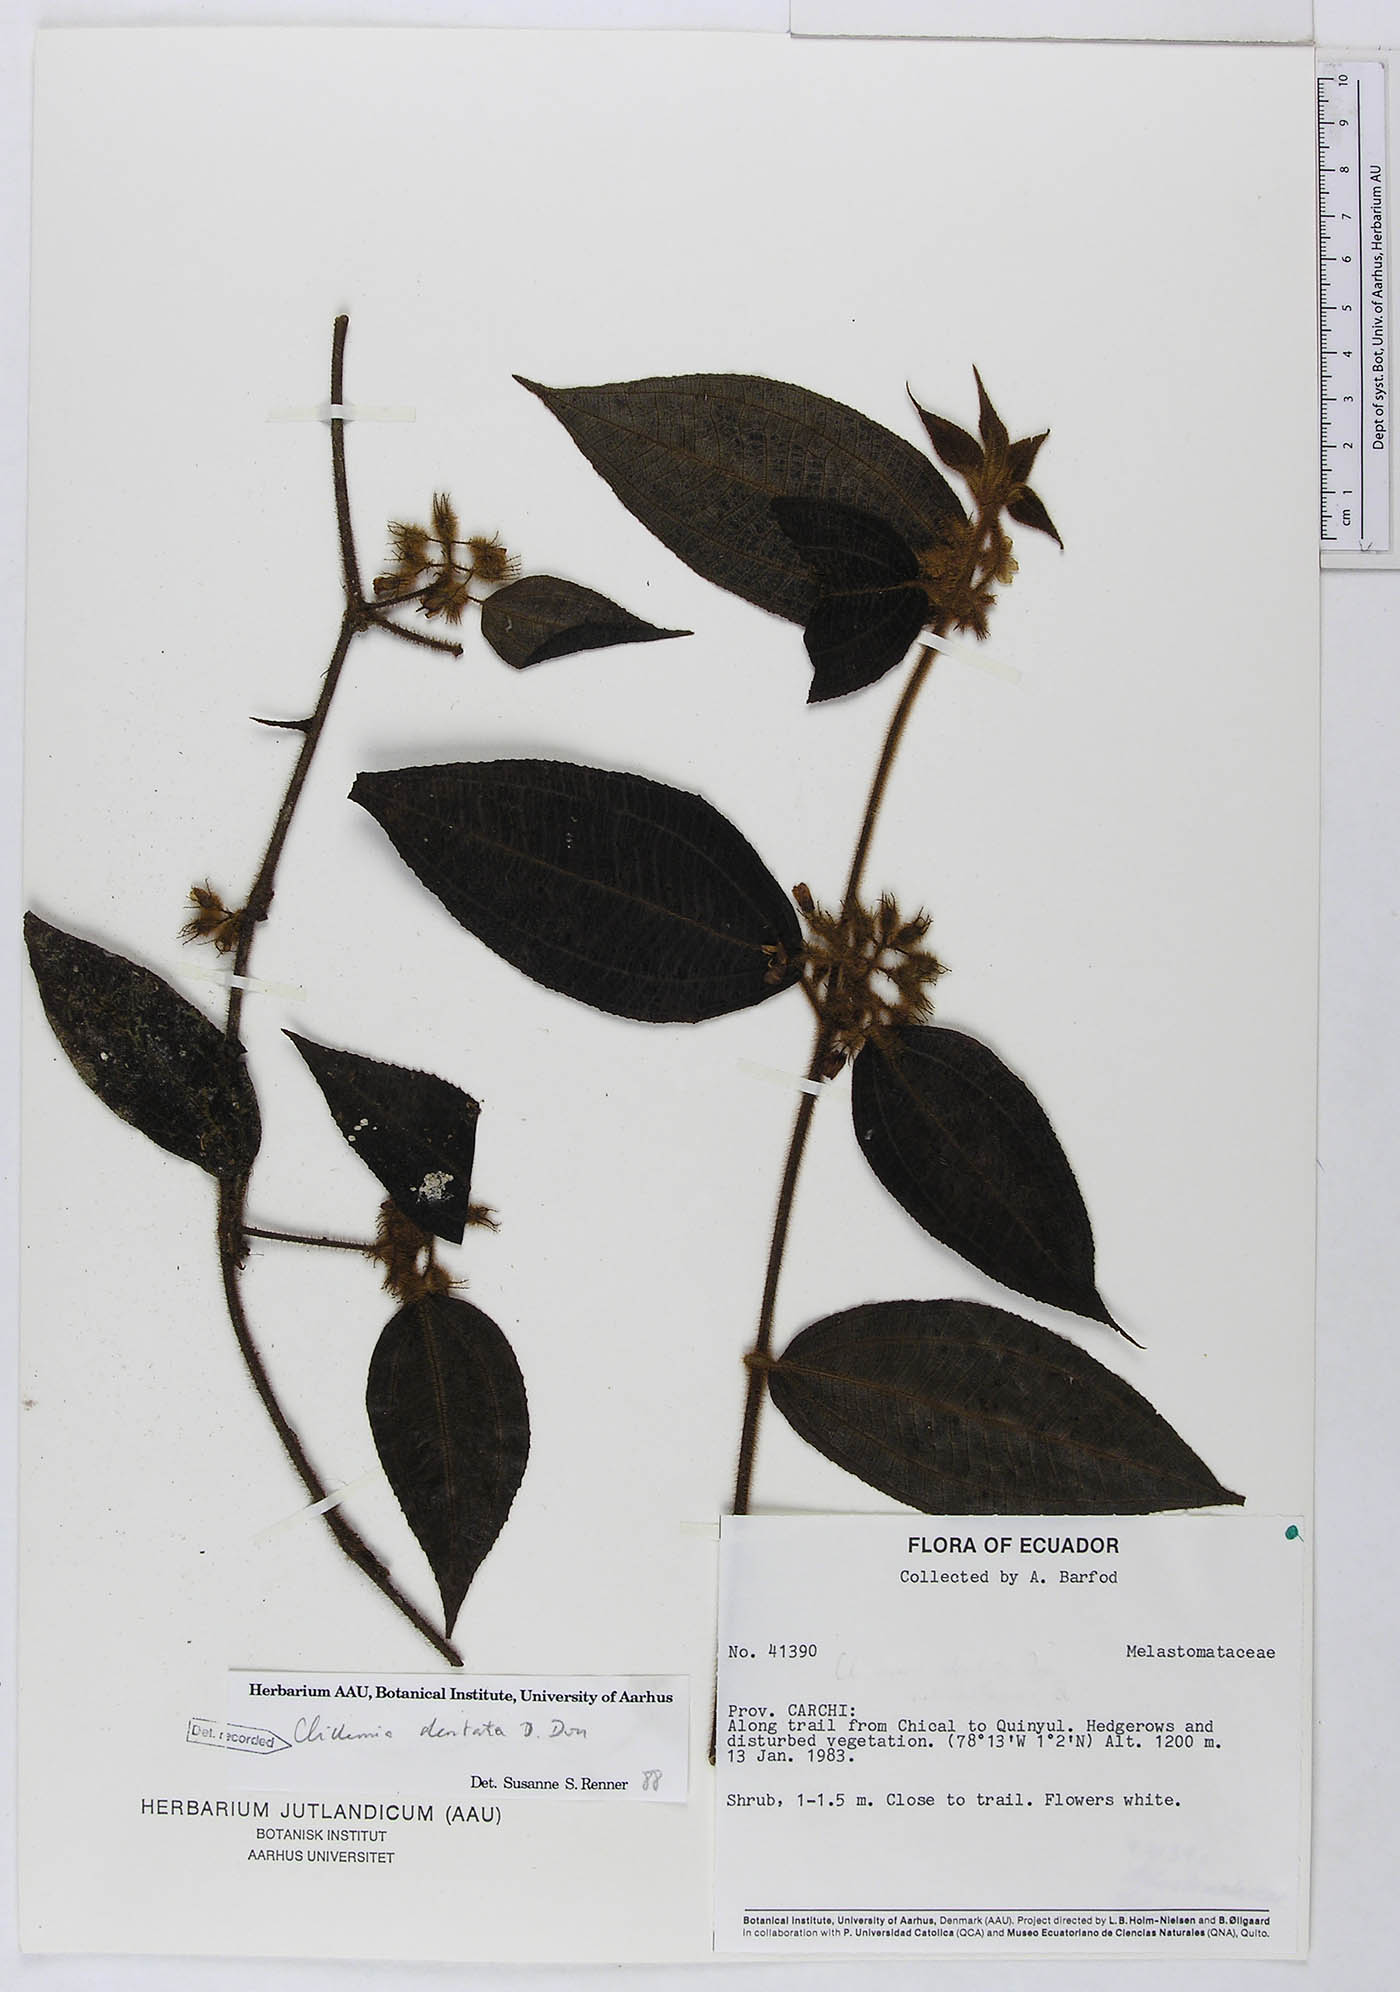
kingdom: Plantae
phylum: Tracheophyta
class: Magnoliopsida
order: Myrtales
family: Melastomataceae
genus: Miconia
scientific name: Miconia dentata
